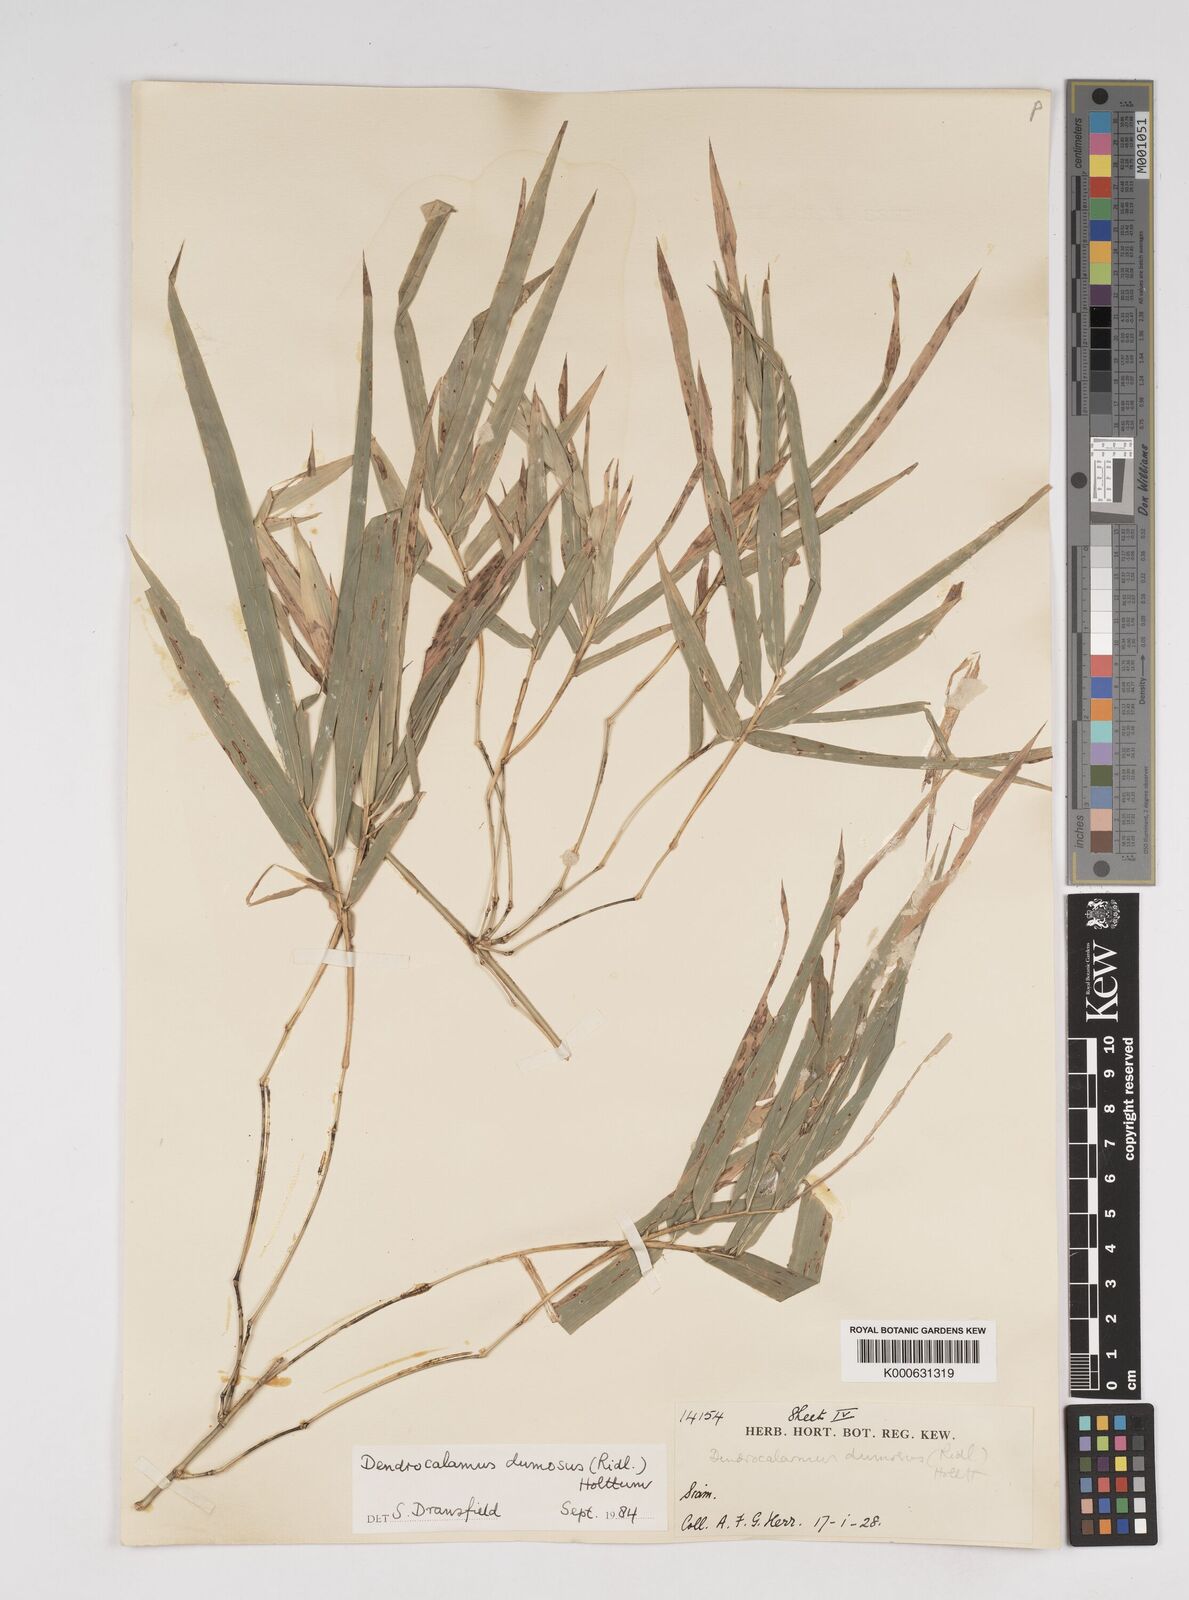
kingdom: Plantae
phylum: Tracheophyta
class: Liliopsida
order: Poales
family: Poaceae
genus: Dendrocalamus
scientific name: Dendrocalamus dumosus
